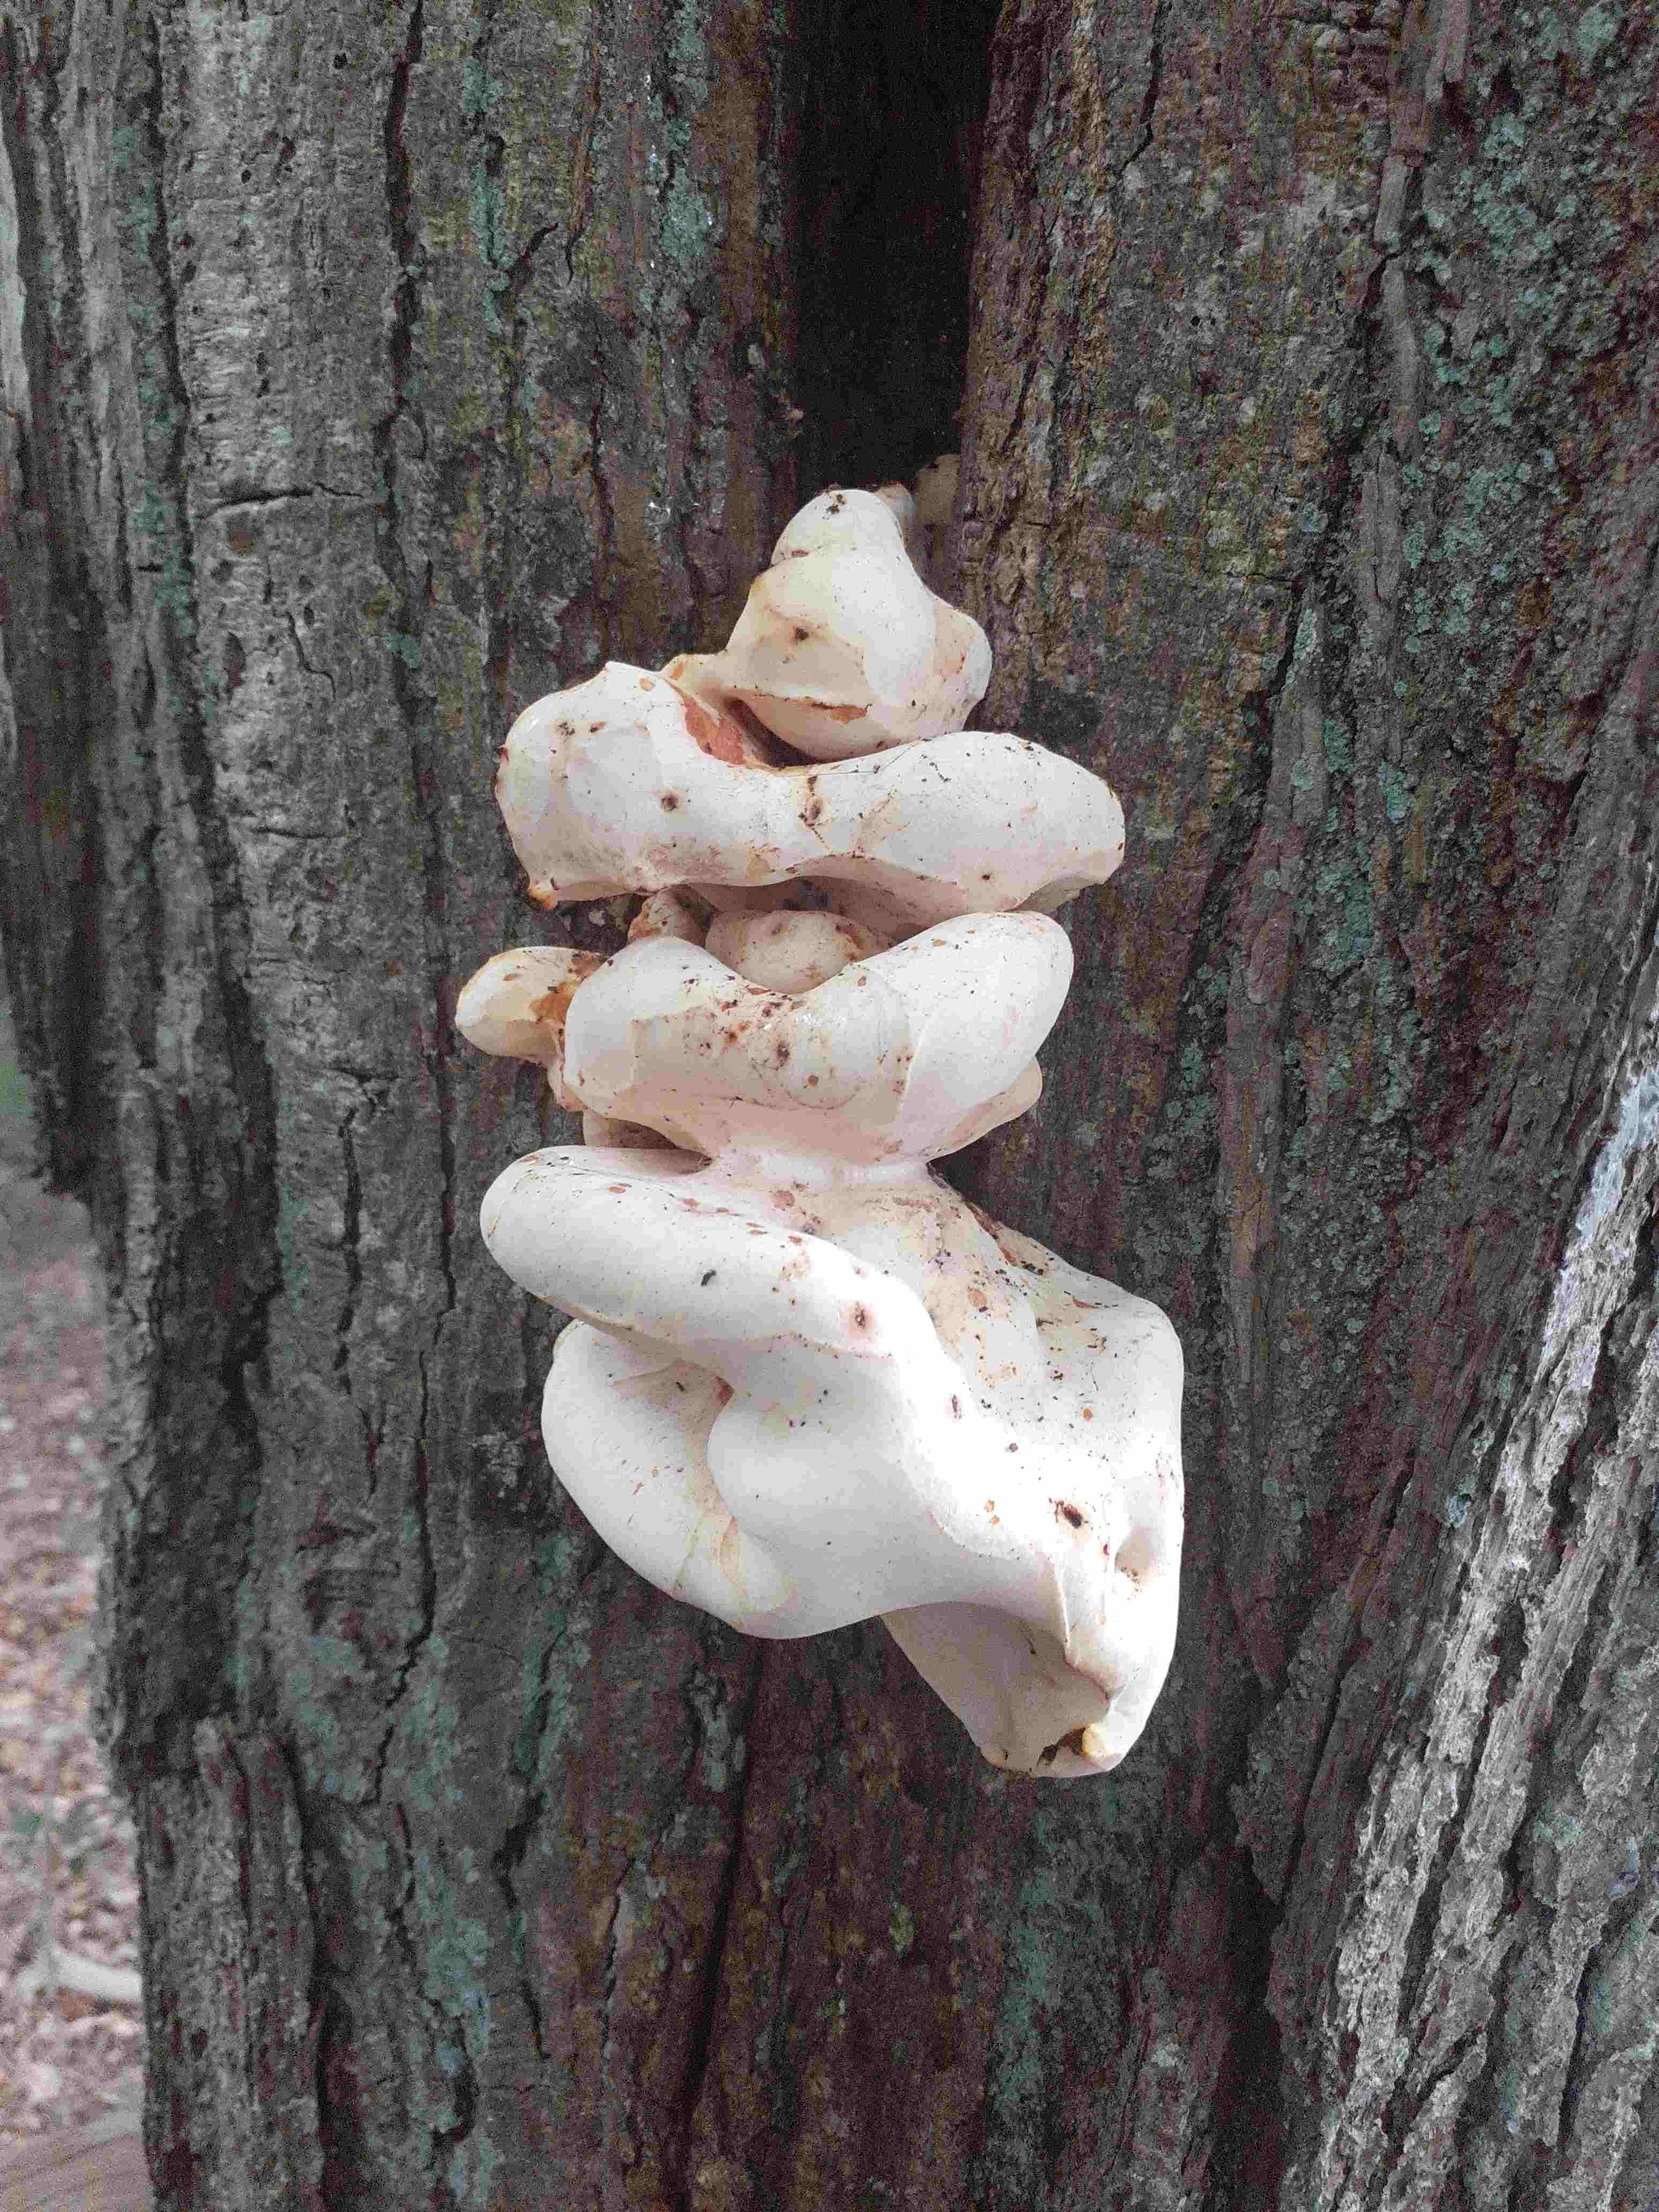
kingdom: Fungi
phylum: Basidiomycota
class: Agaricomycetes
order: Polyporales
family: Fomitopsidaceae
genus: Buglossoporus
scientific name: Buglossoporus quercinus
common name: egetunge
